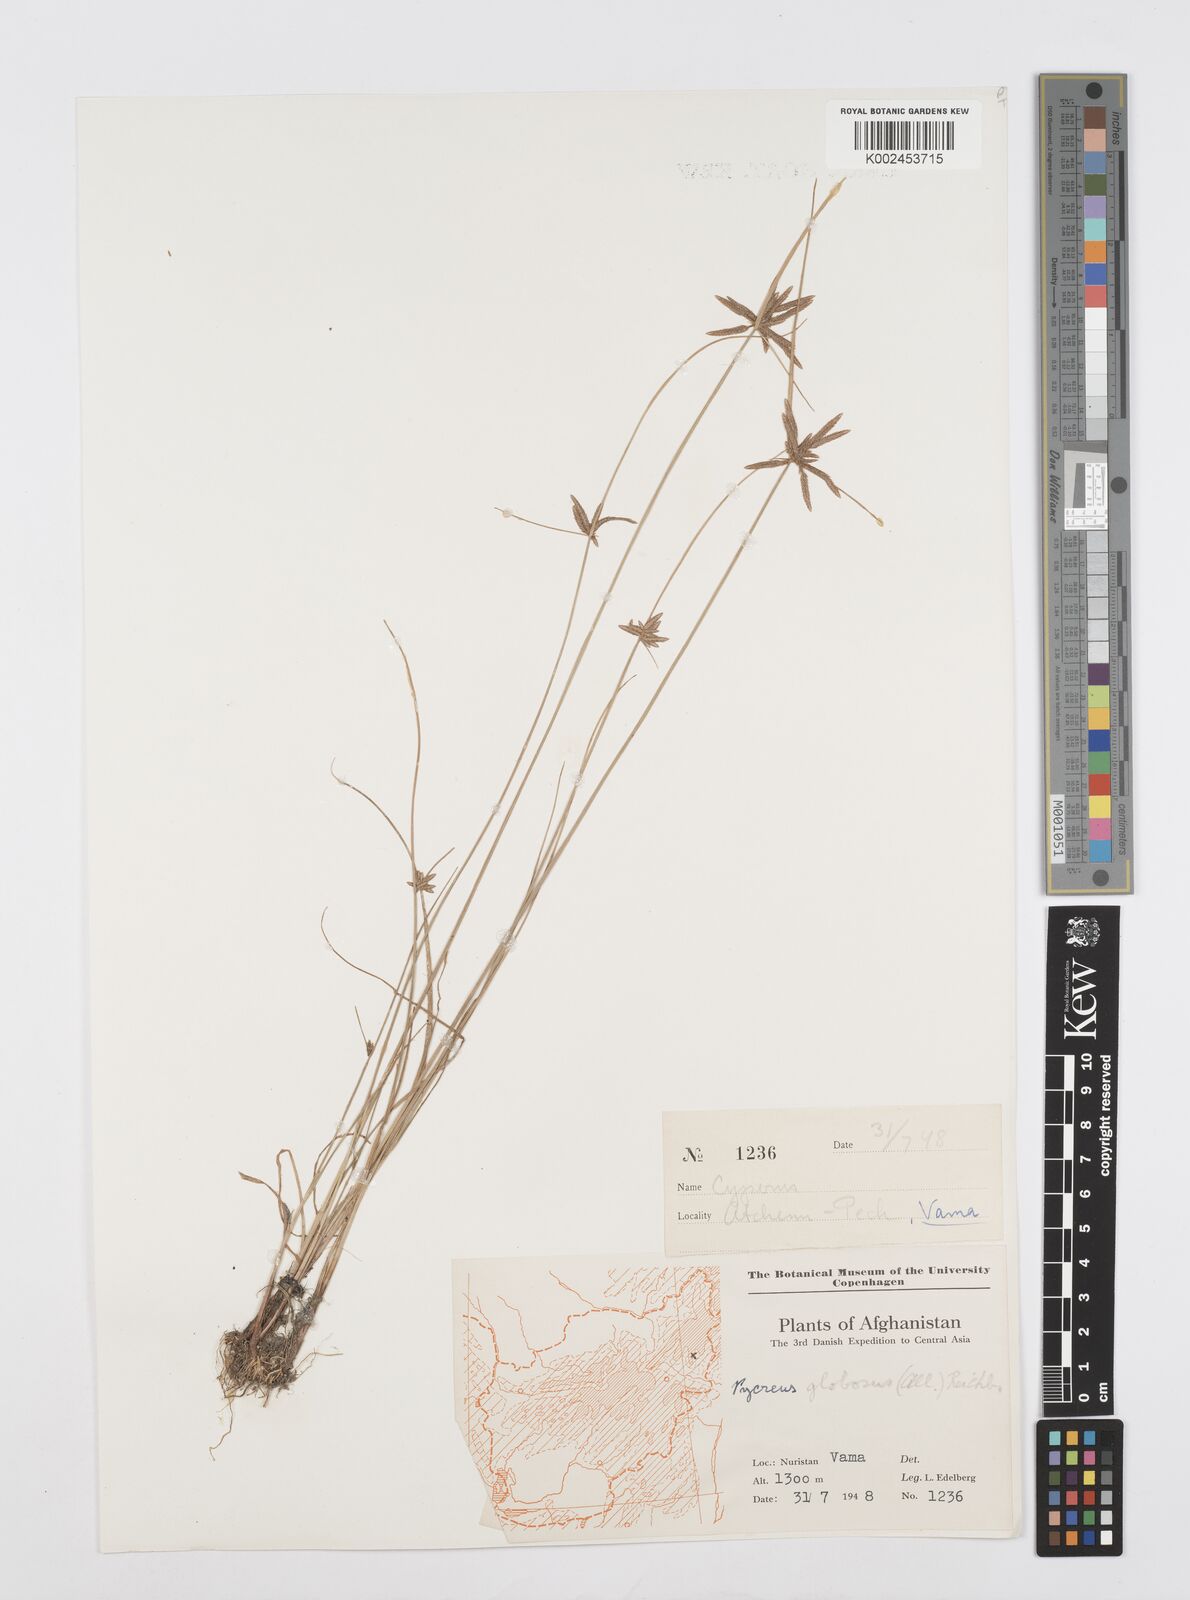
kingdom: Plantae
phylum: Tracheophyta
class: Liliopsida
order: Poales
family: Cyperaceae
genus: Cyperus
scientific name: Cyperus flavidus
